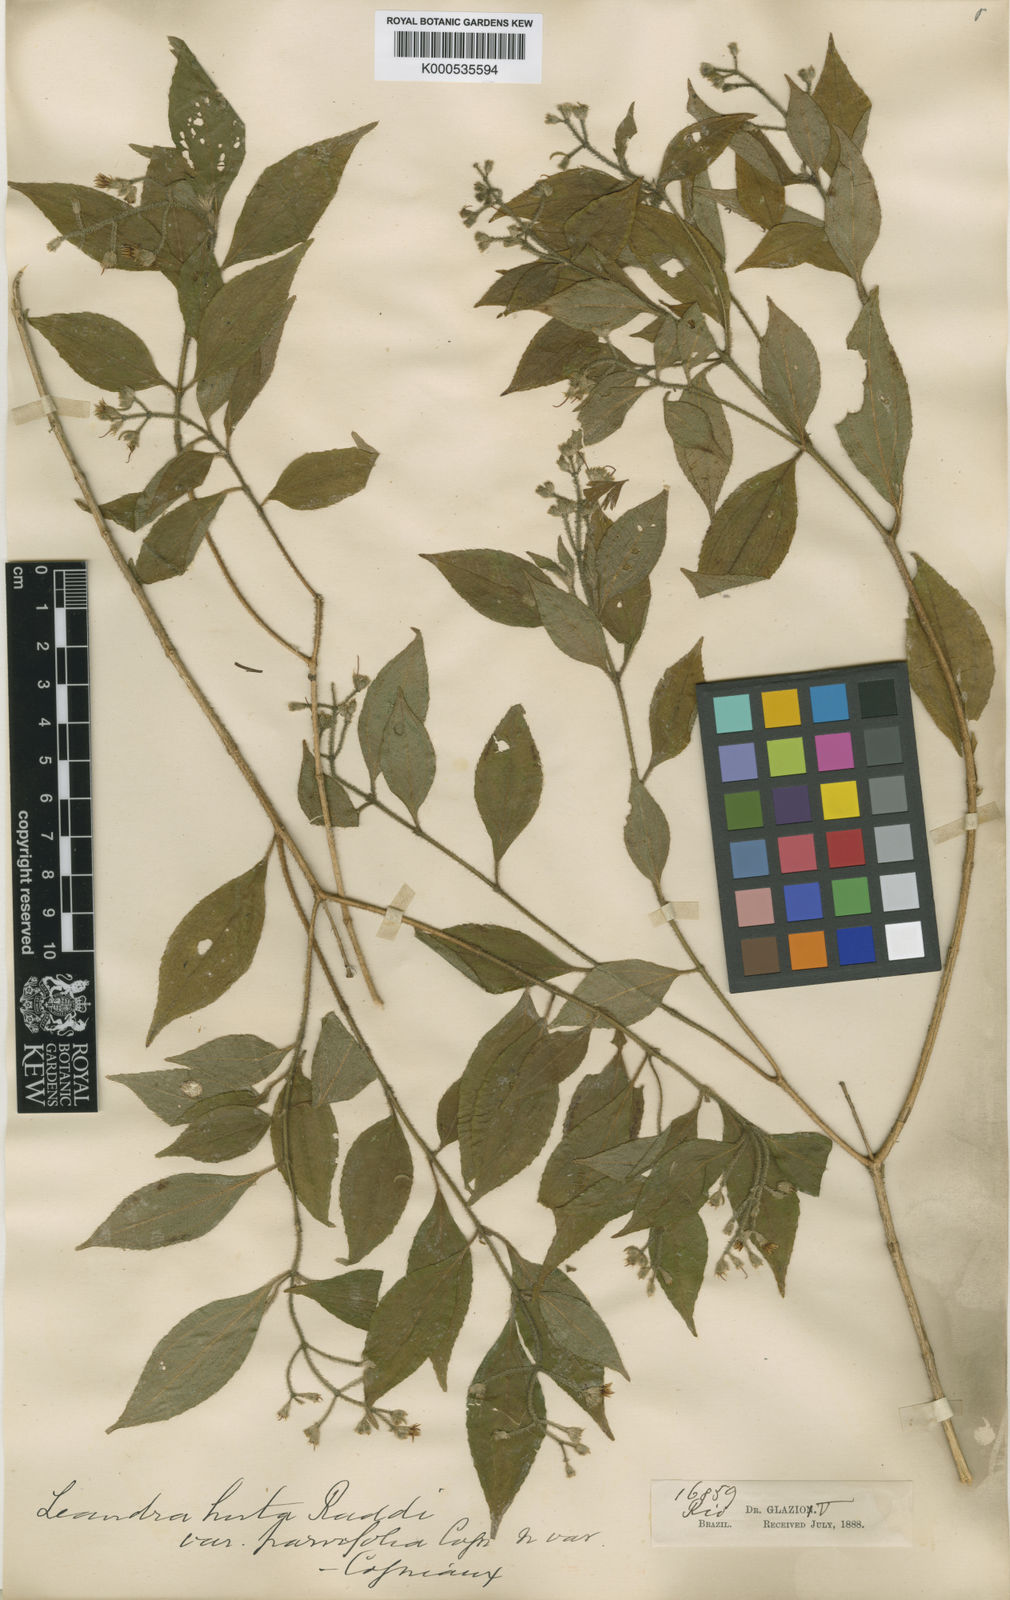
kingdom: Plantae
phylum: Tracheophyta
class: Magnoliopsida
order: Myrtales
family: Melastomataceae
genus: Miconia
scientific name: Miconia dubia
